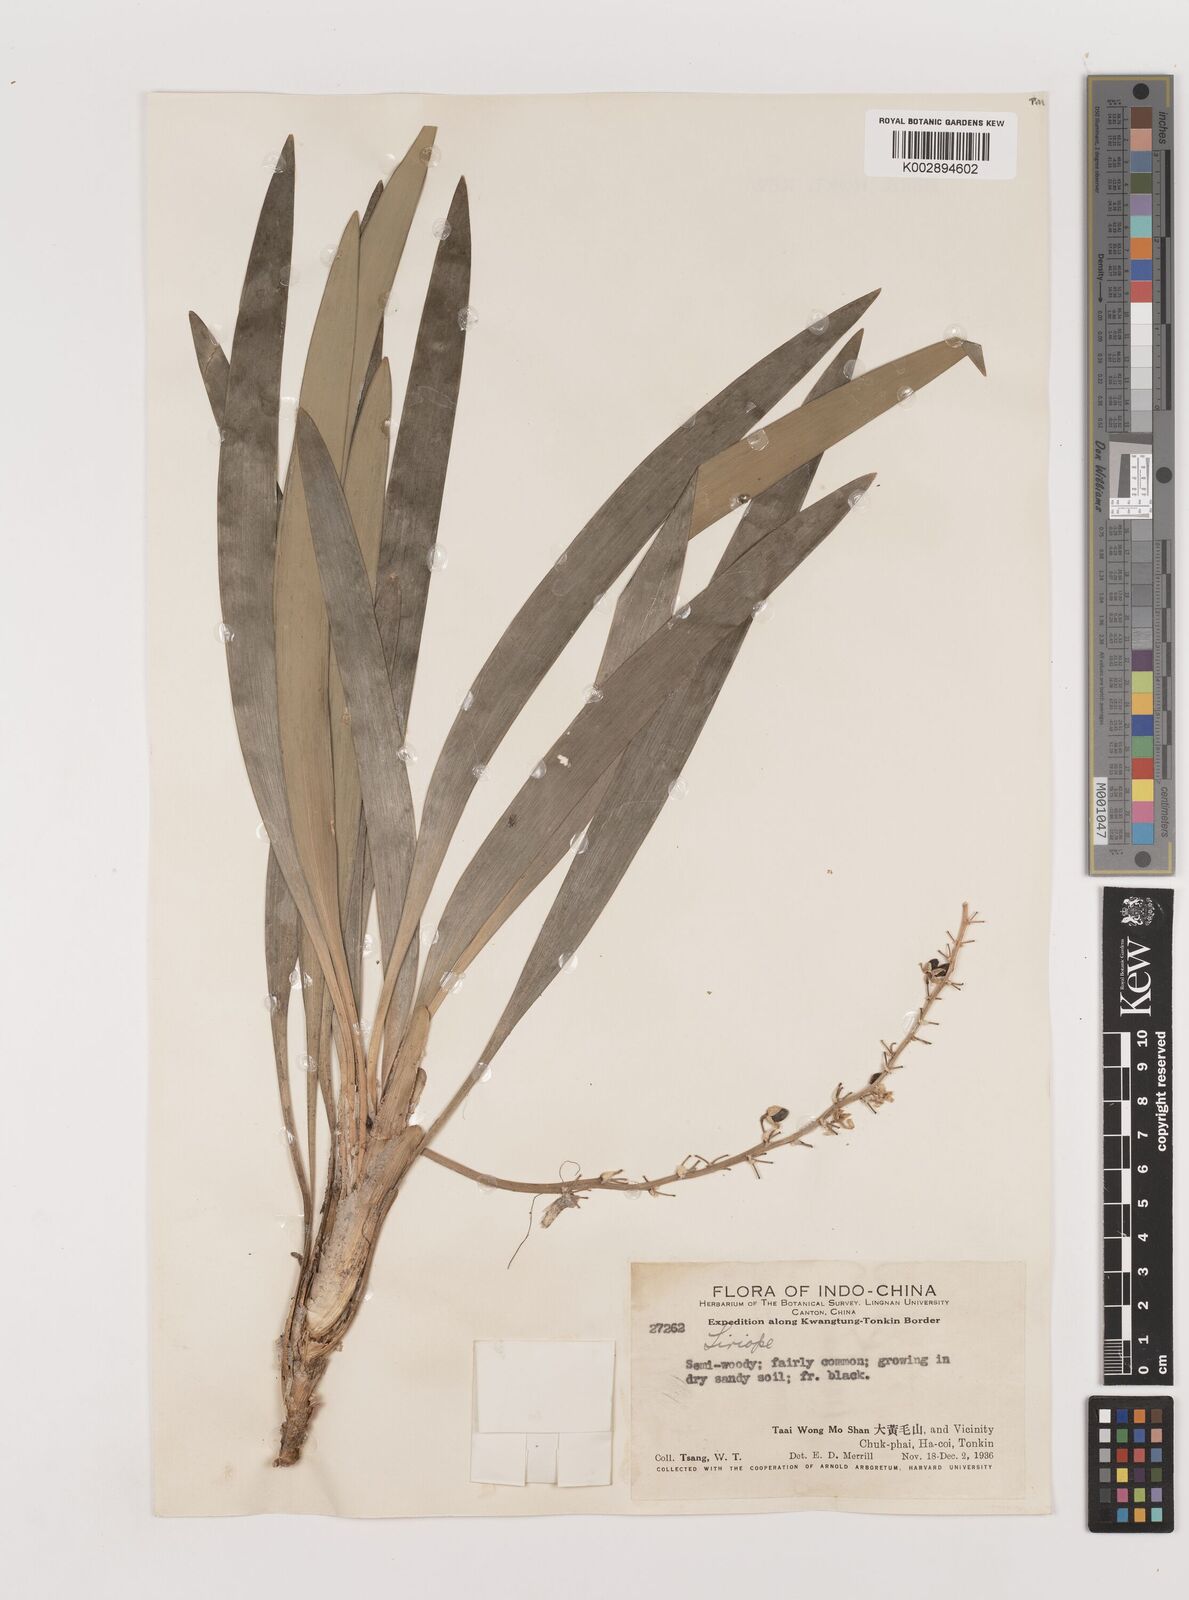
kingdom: Plantae
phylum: Tracheophyta
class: Liliopsida
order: Asparagales
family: Asparagaceae
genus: Liriope
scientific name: Liriope
